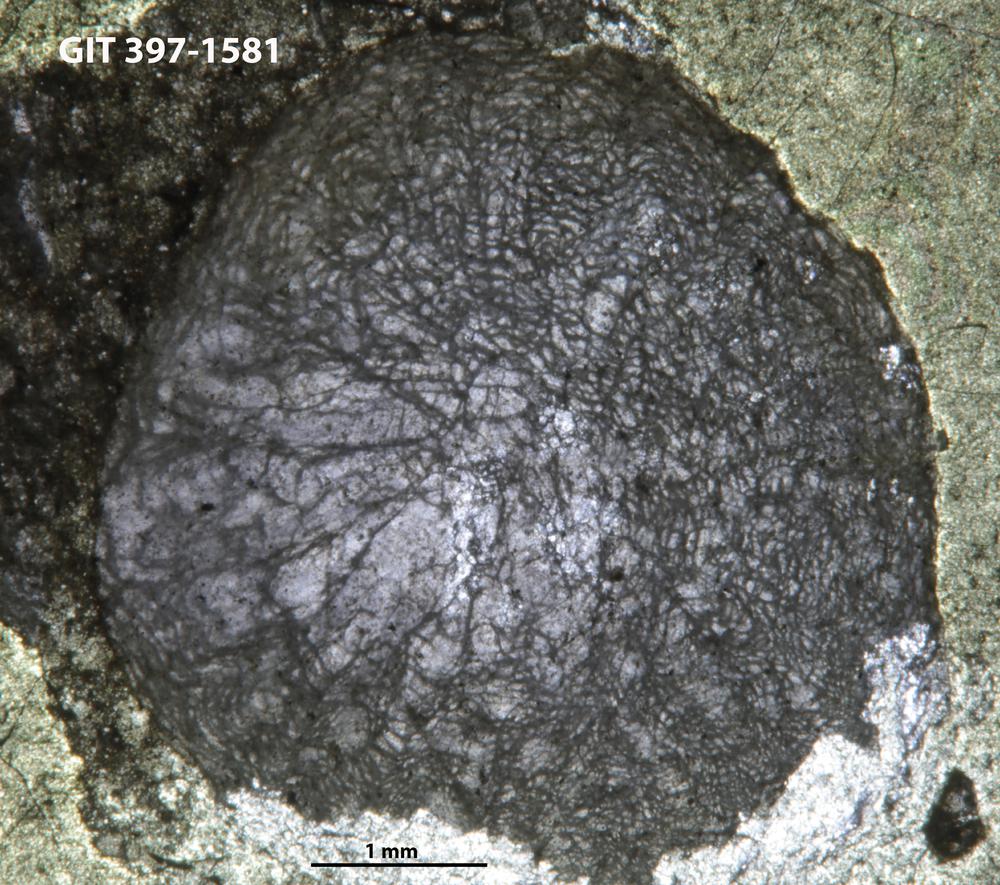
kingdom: Animalia
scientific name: Animalia
